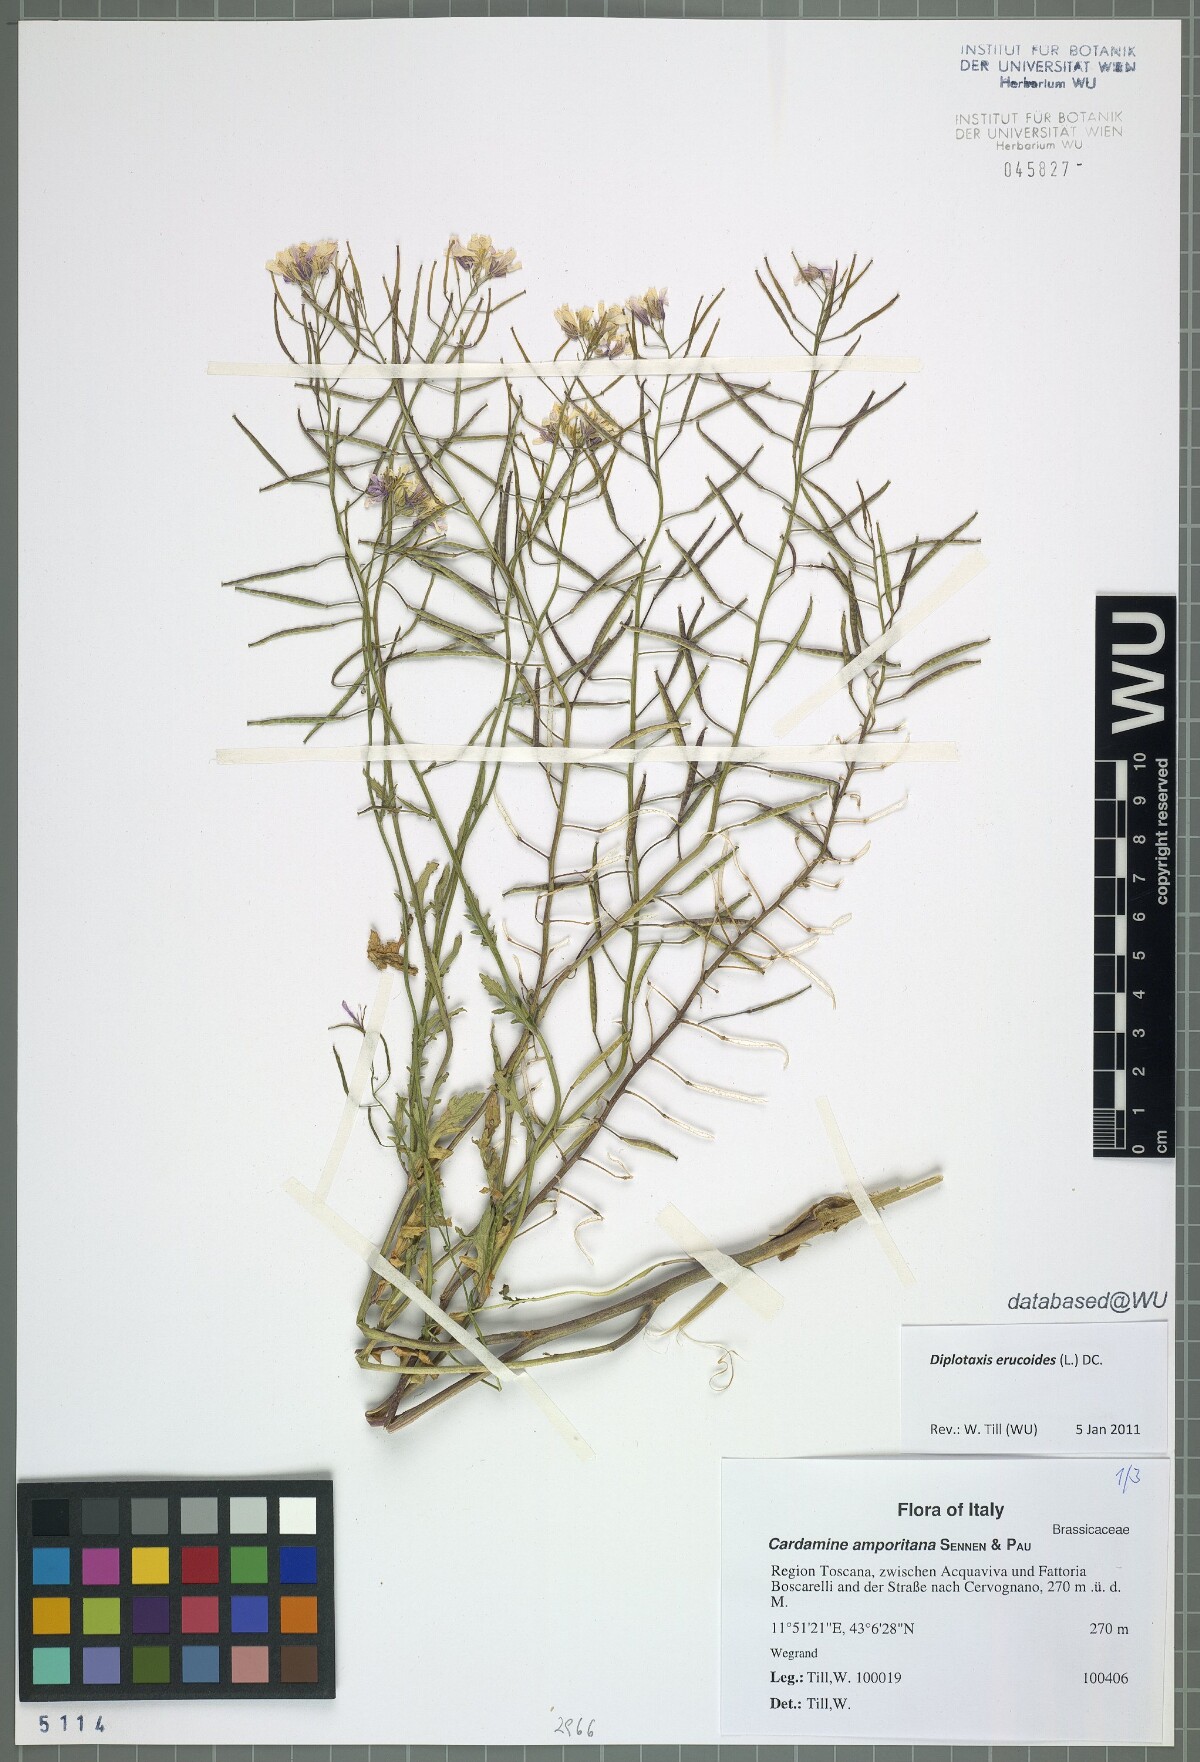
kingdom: Plantae
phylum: Tracheophyta
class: Magnoliopsida
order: Brassicales
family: Brassicaceae
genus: Diplotaxis
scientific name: Diplotaxis erucoides
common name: White rocket
